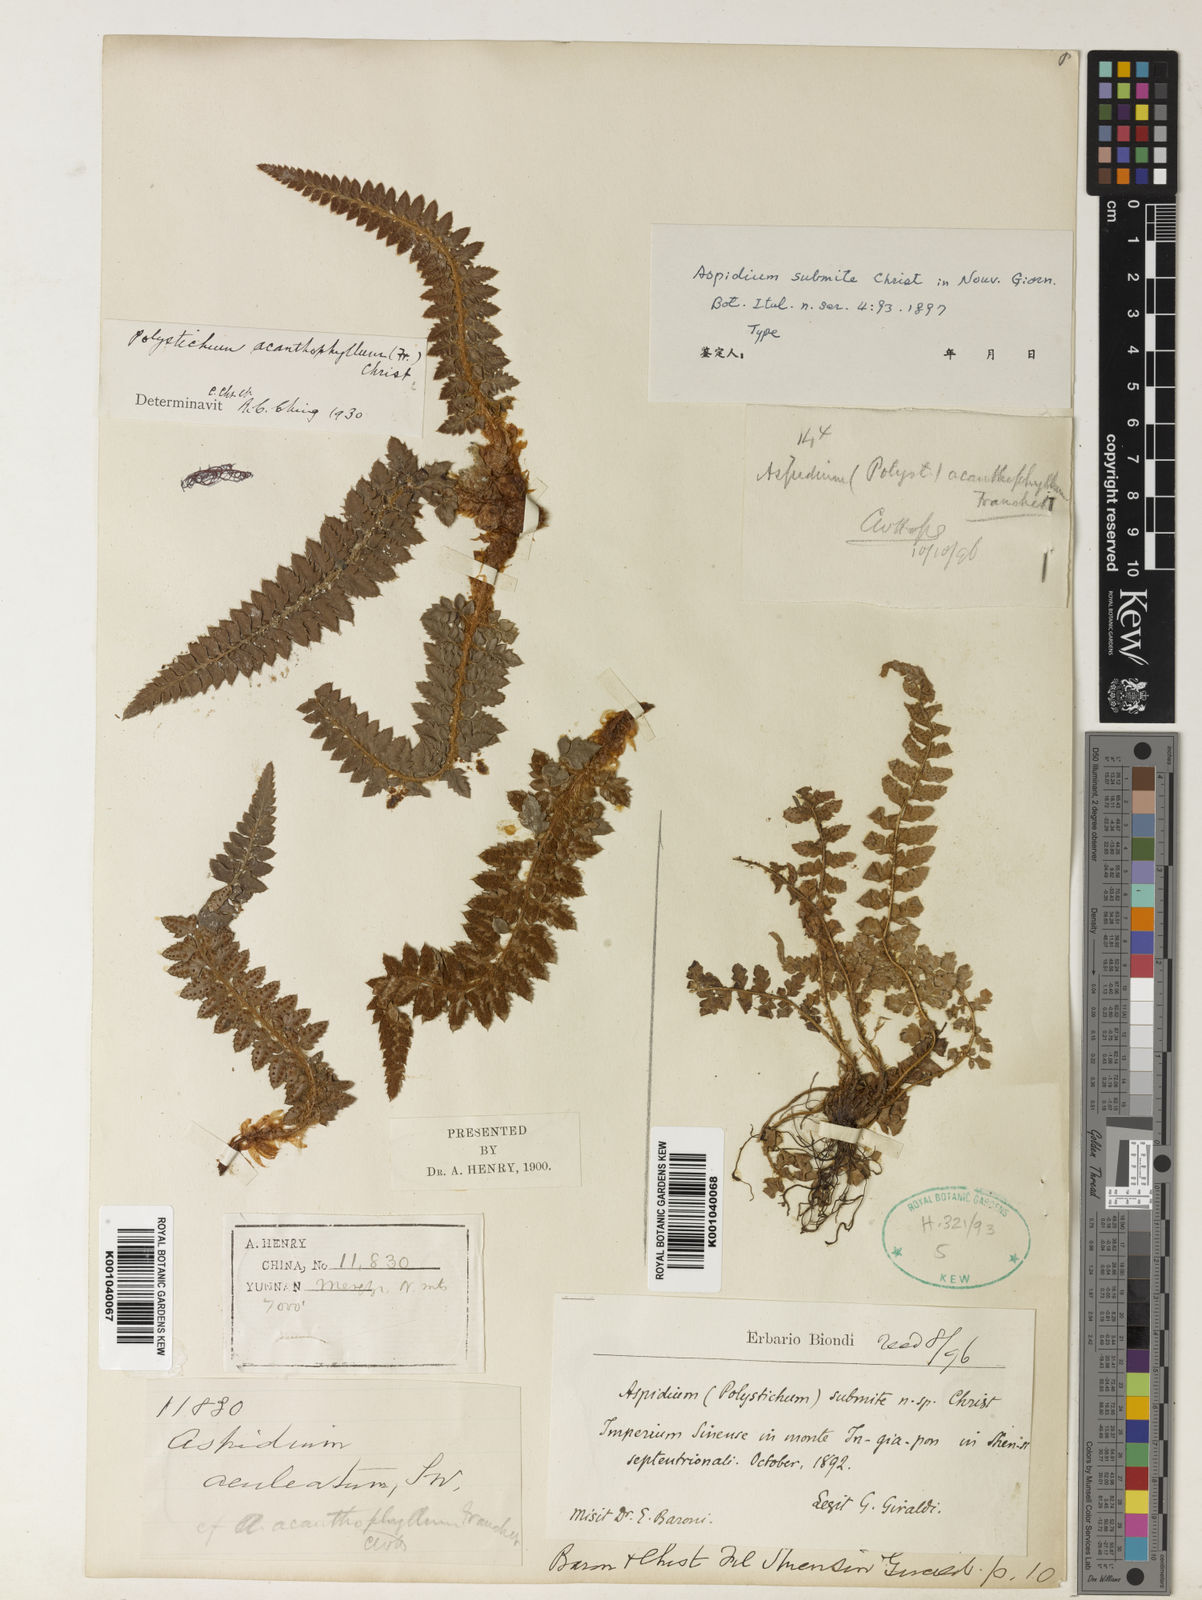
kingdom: Plantae
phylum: Tracheophyta
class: Polypodiopsida
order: Polypodiales
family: Dryopteridaceae
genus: Polystichum
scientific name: Polystichum submite
